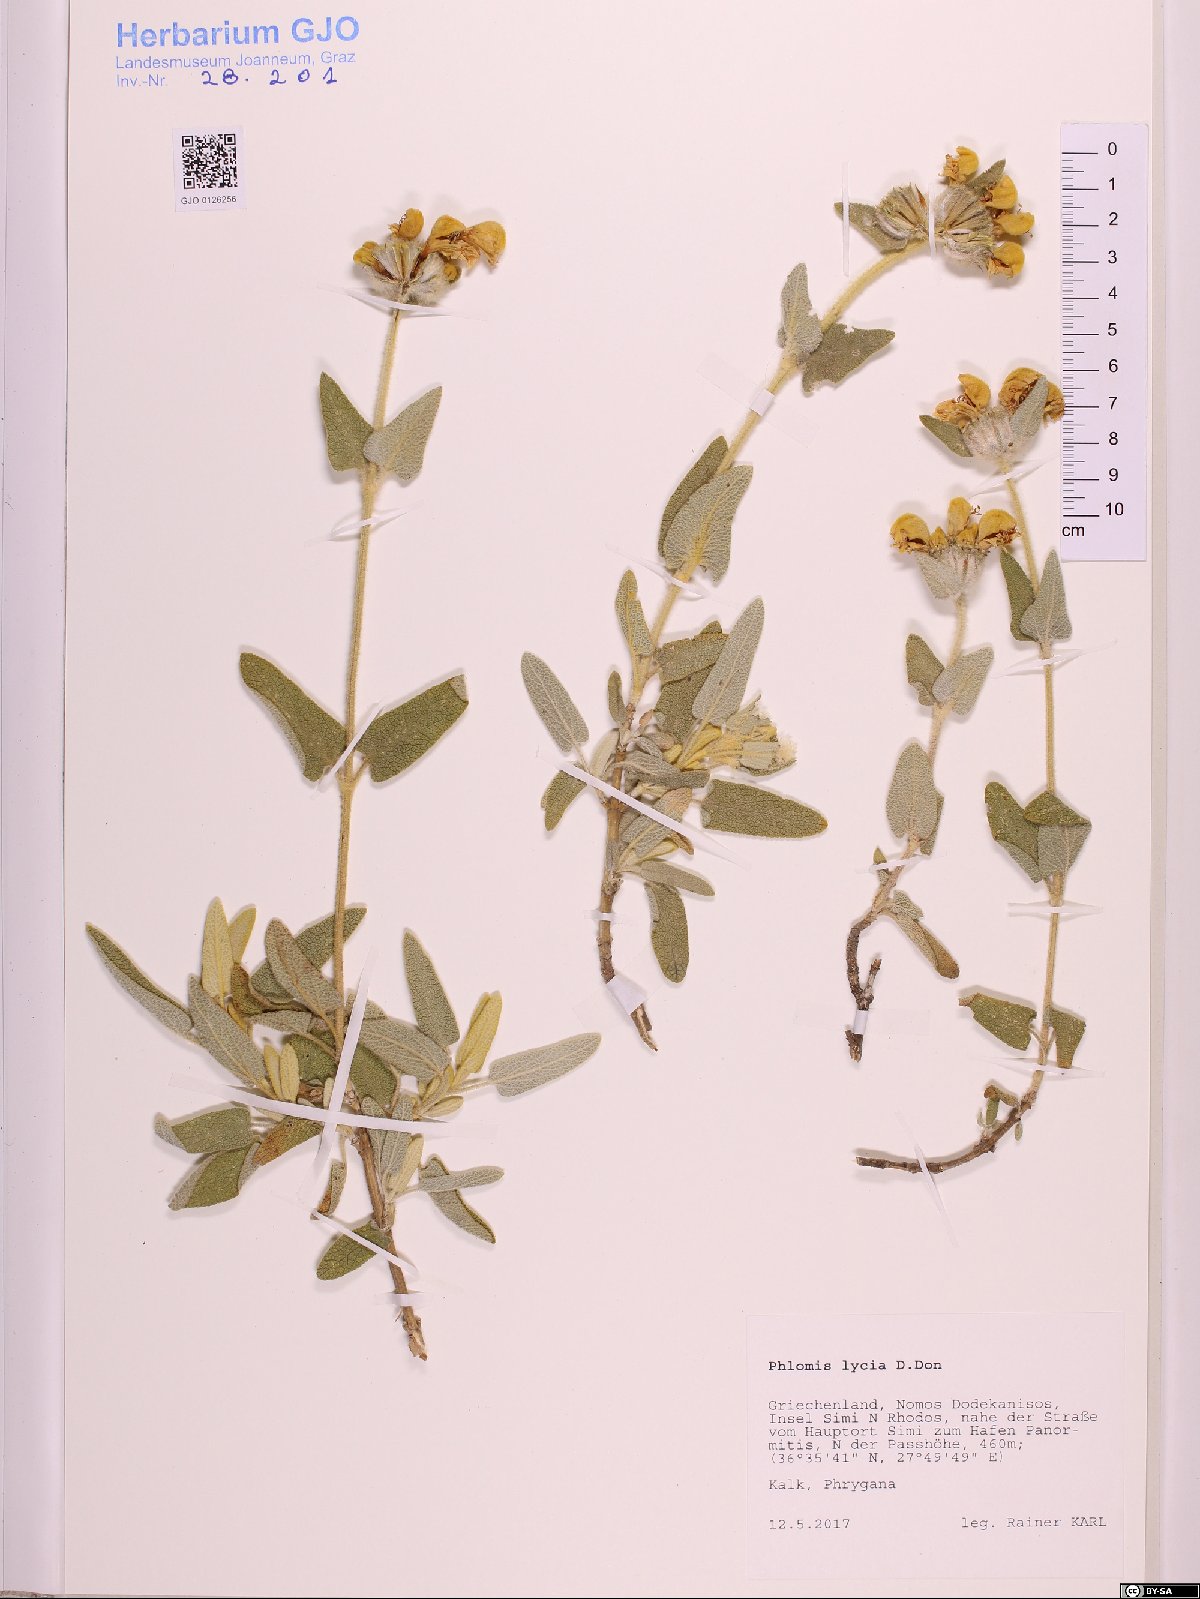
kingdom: Plantae
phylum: Tracheophyta
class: Magnoliopsida
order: Lamiales
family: Lamiaceae
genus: Phlomis
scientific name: Phlomis lycia
